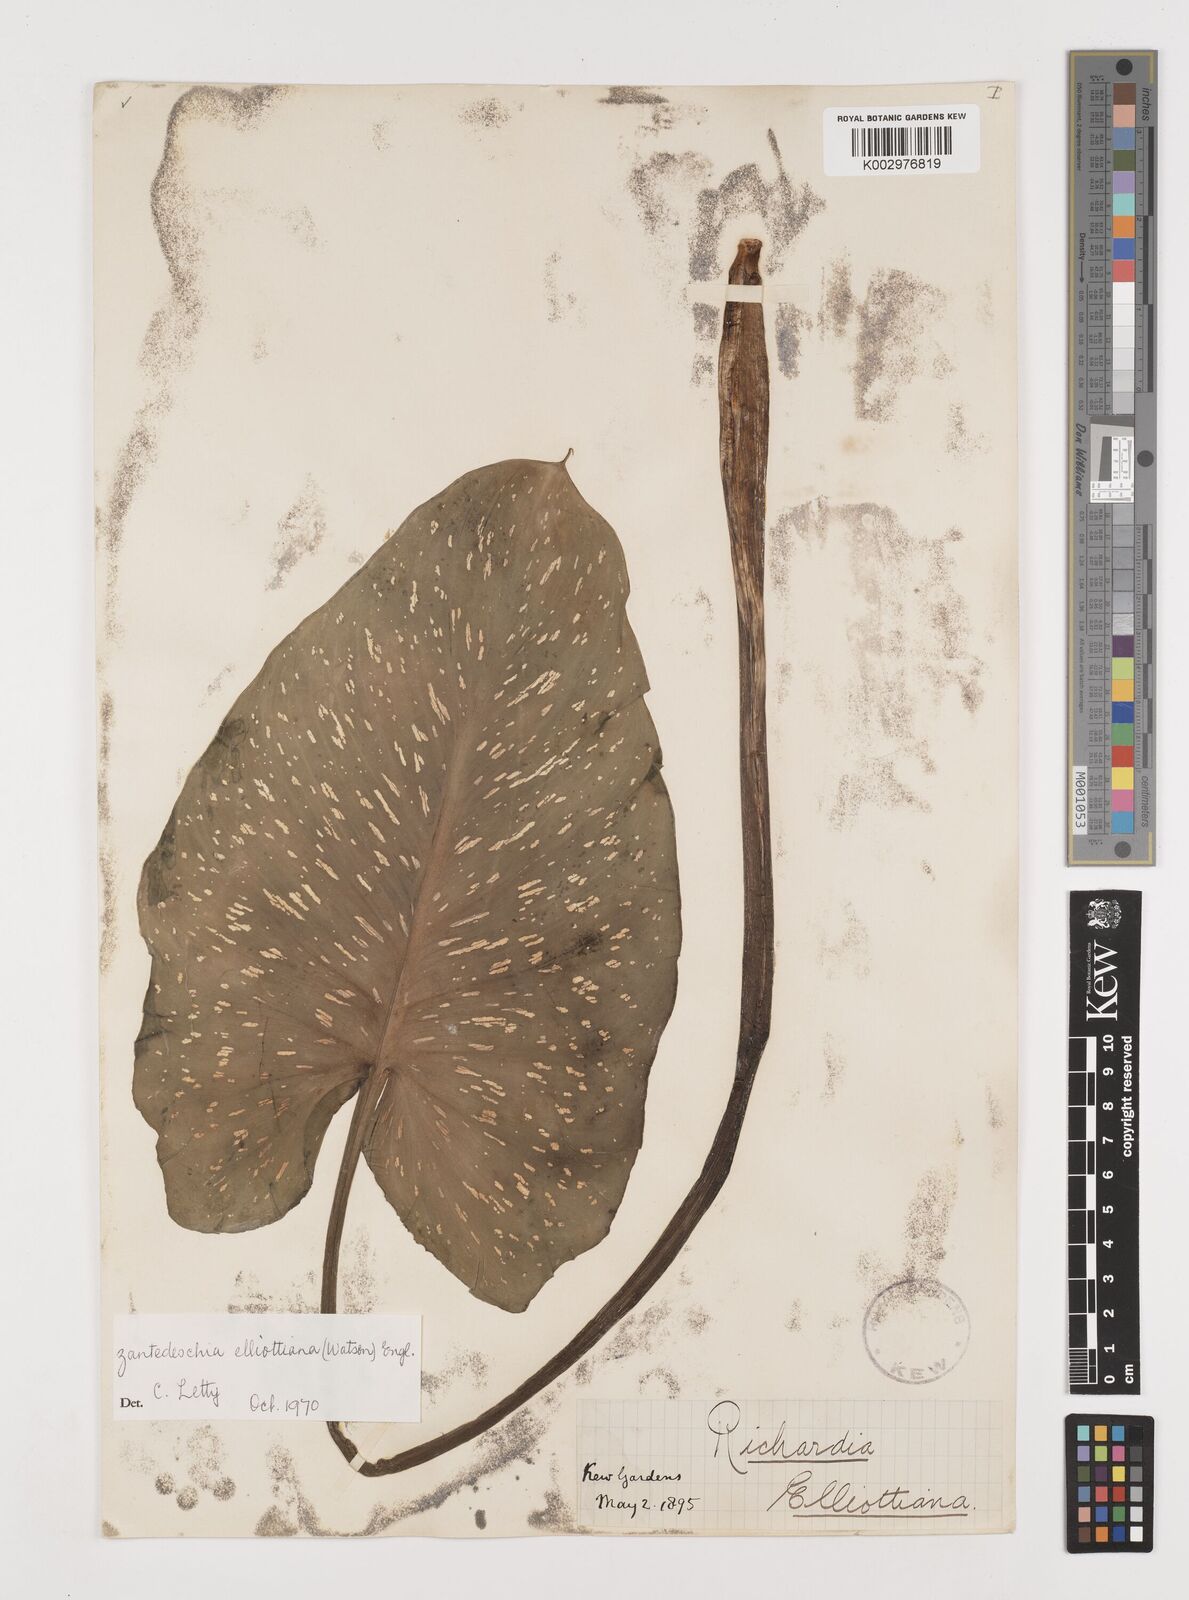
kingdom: Plantae
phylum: Tracheophyta
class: Liliopsida
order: Alismatales
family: Araceae
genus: Zantedeschia
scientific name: Zantedeschia elliottiana
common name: Yellow calla
